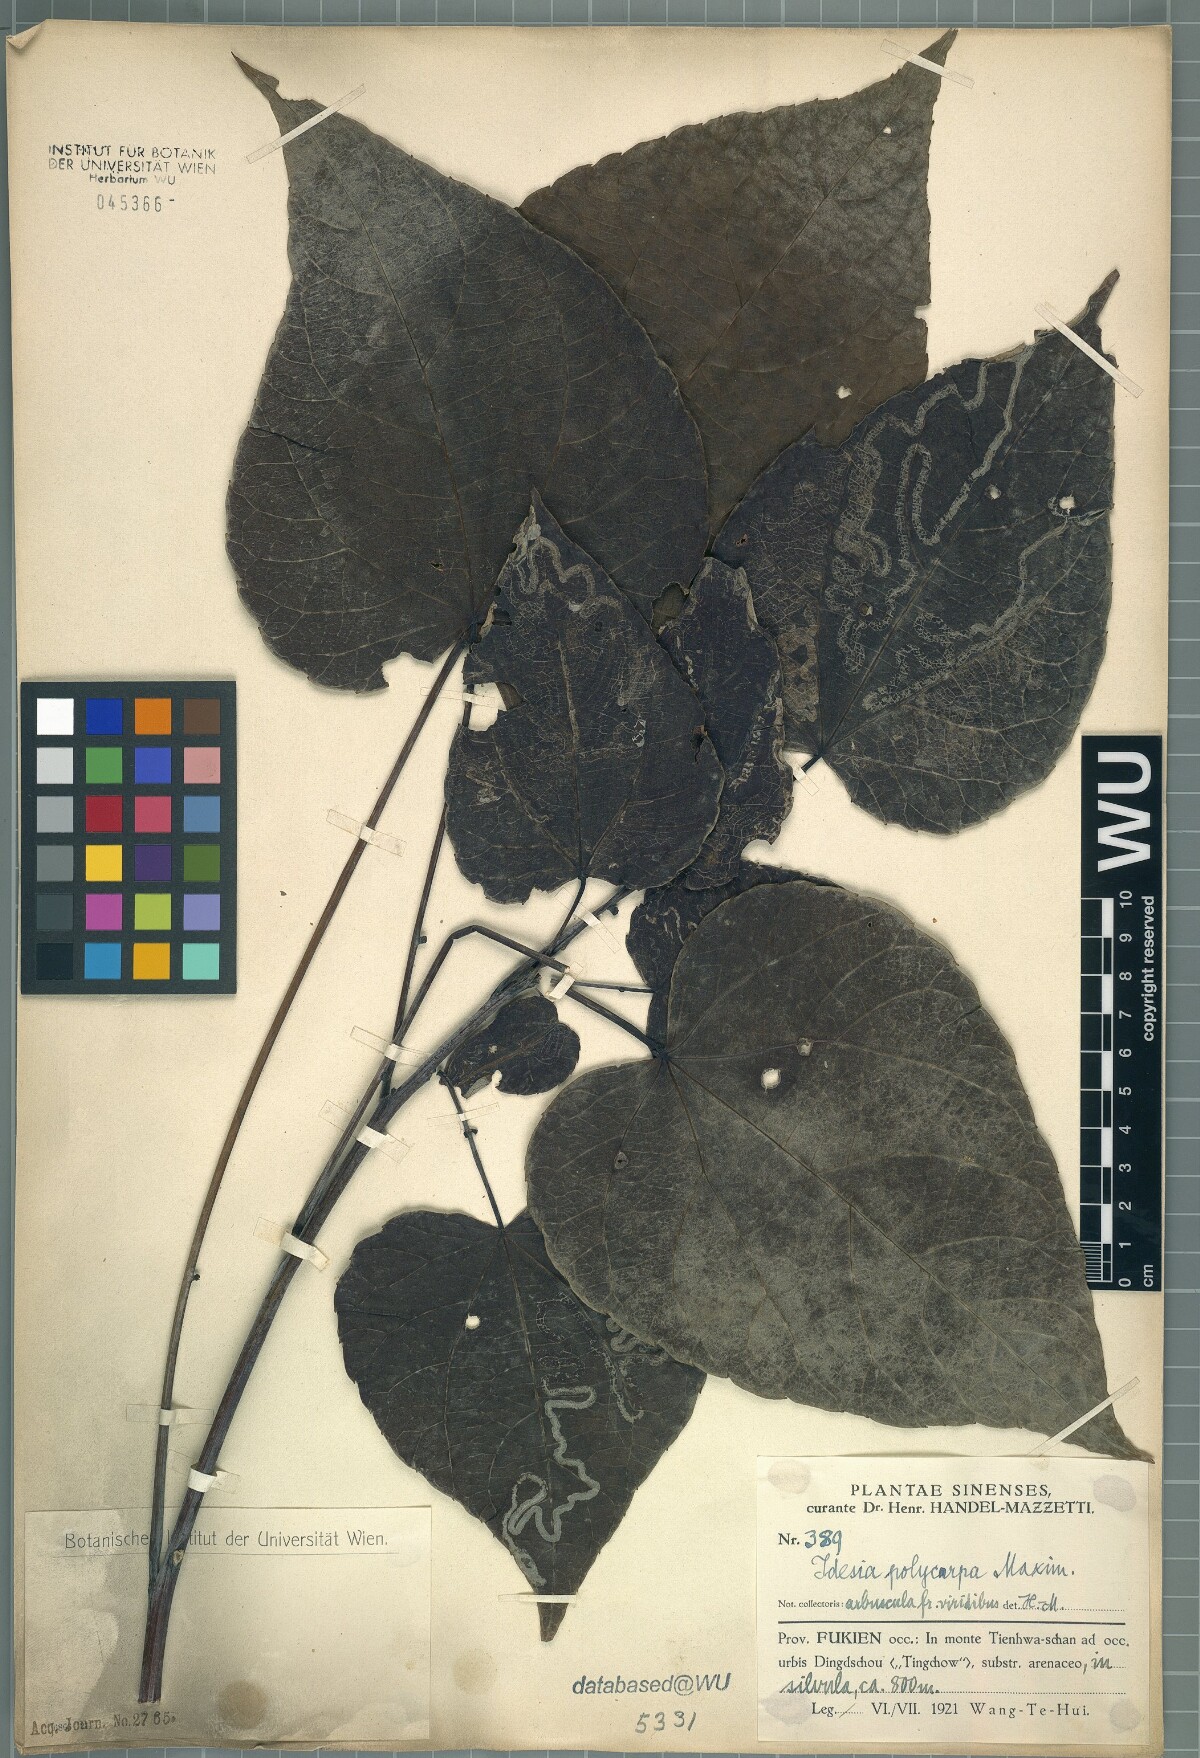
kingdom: Plantae
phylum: Tracheophyta
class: Magnoliopsida
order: Malpighiales
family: Salicaceae
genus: Idesia
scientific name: Idesia polycarpa
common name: Idesia tree
